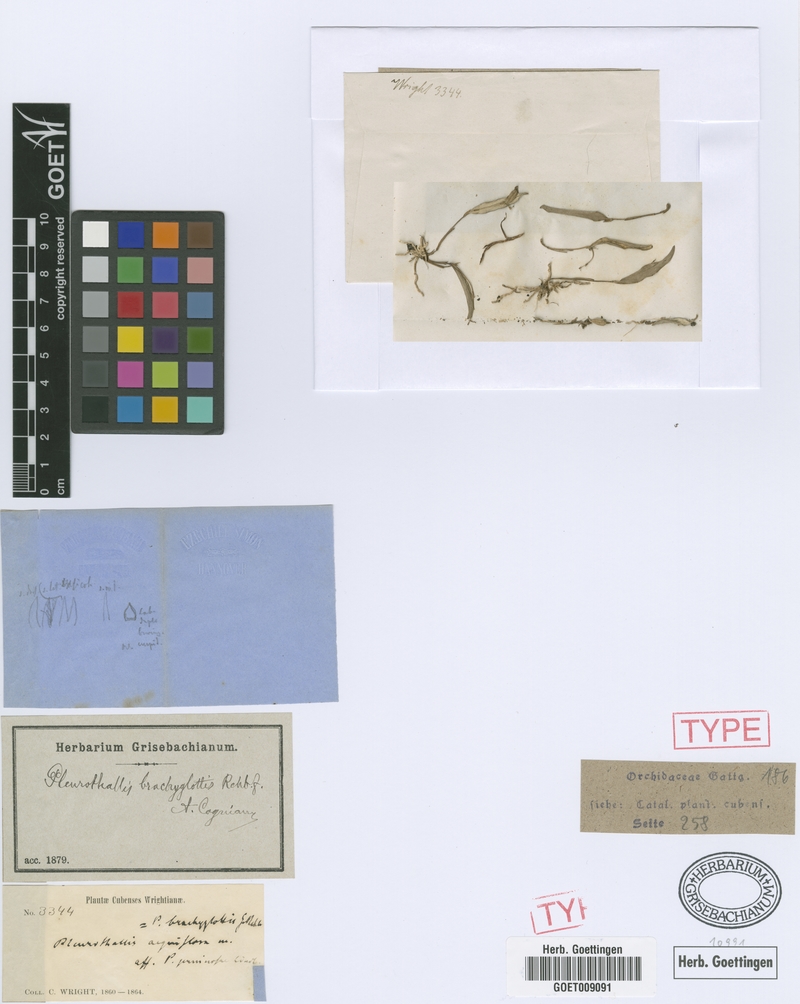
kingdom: Plantae
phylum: Tracheophyta
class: Liliopsida
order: Asparagales
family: Orchidaceae
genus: Pleurothallis
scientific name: Pleurothallis pruinosa
